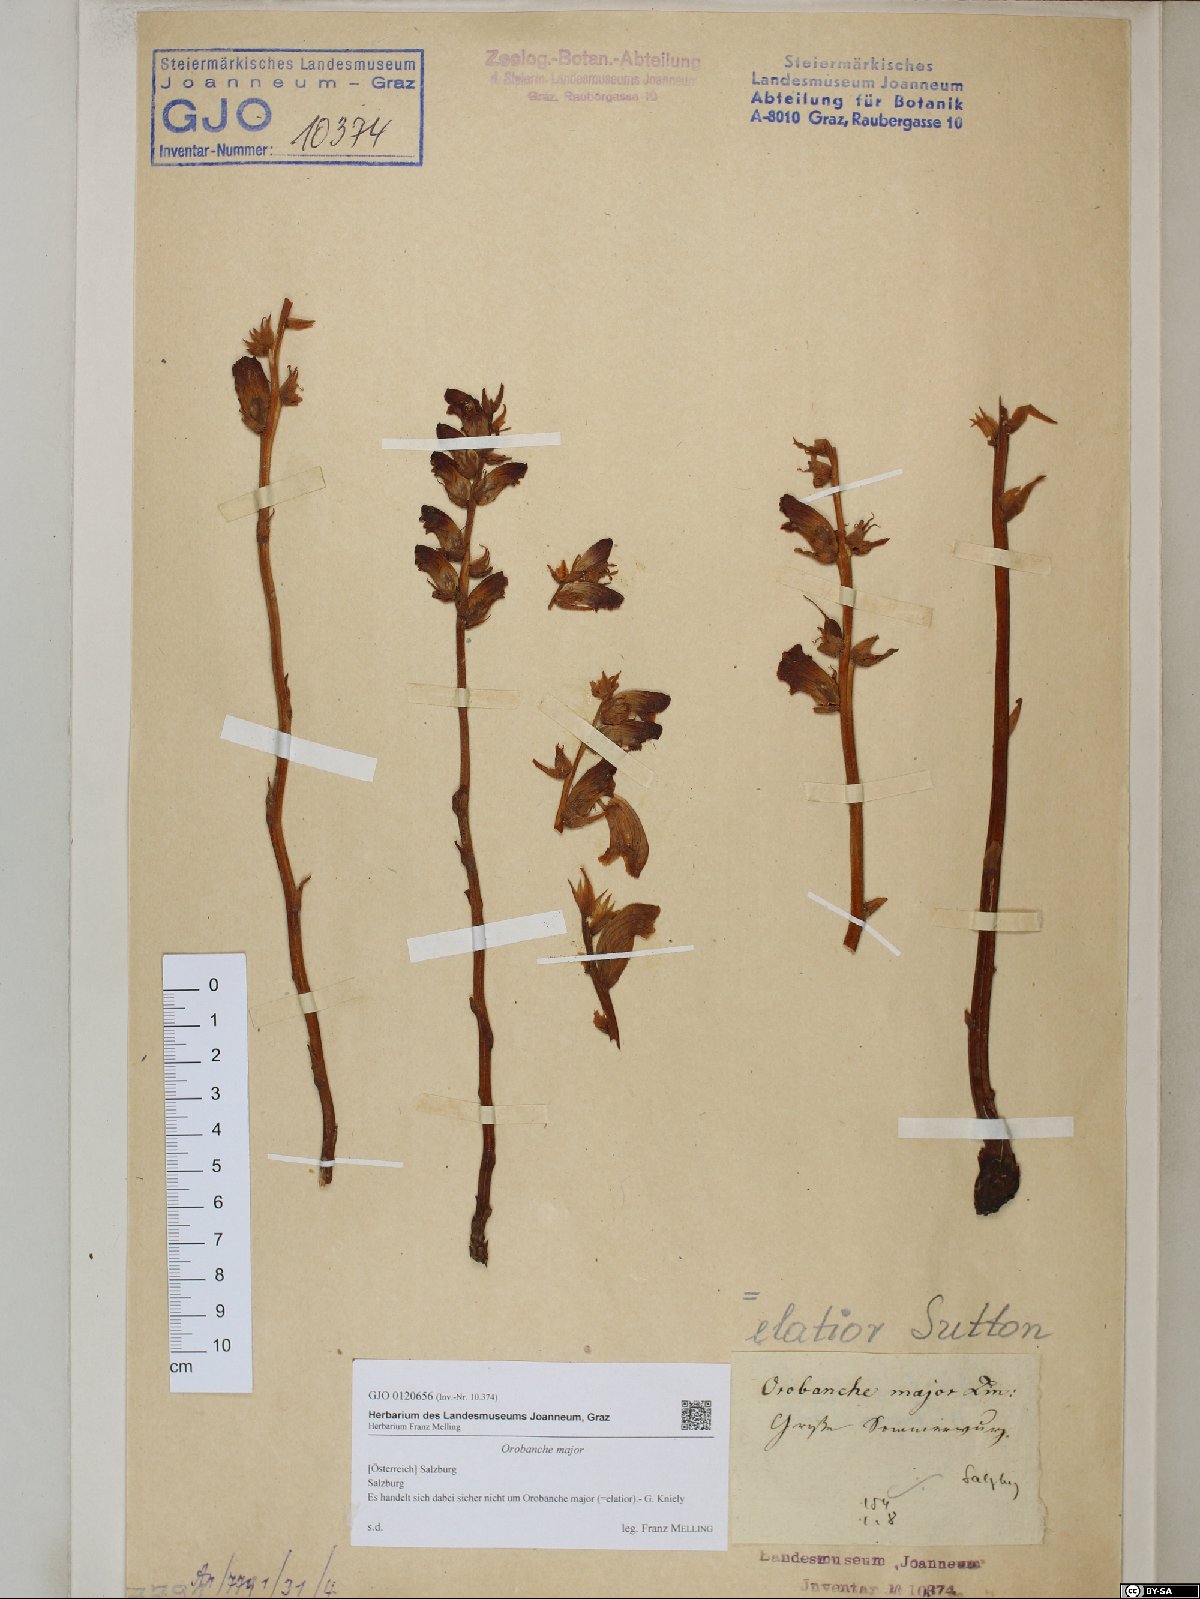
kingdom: Plantae
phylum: Tracheophyta
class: Magnoliopsida
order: Lamiales
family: Orobanchaceae
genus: Orobanche
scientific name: Orobanche rapum-genistae
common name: Greater broomrape
